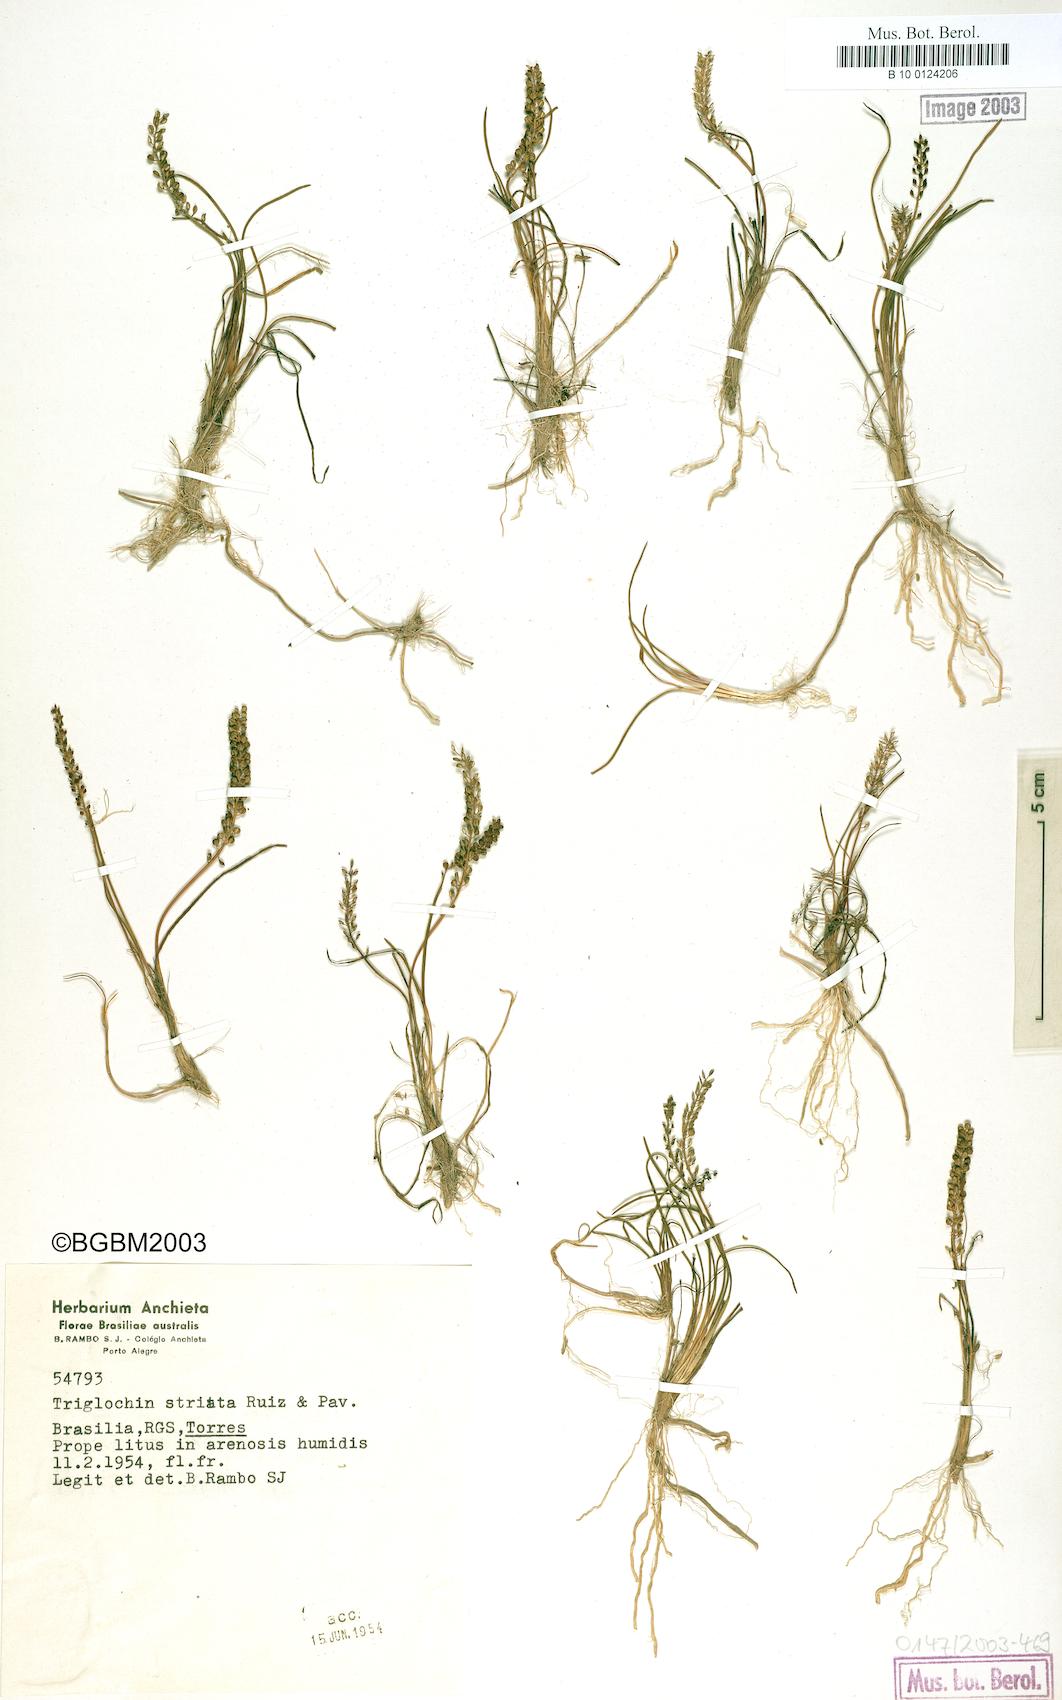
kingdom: Plantae
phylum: Tracheophyta
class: Liliopsida
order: Alismatales
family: Juncaginaceae
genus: Triglochin
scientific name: Triglochin striata
